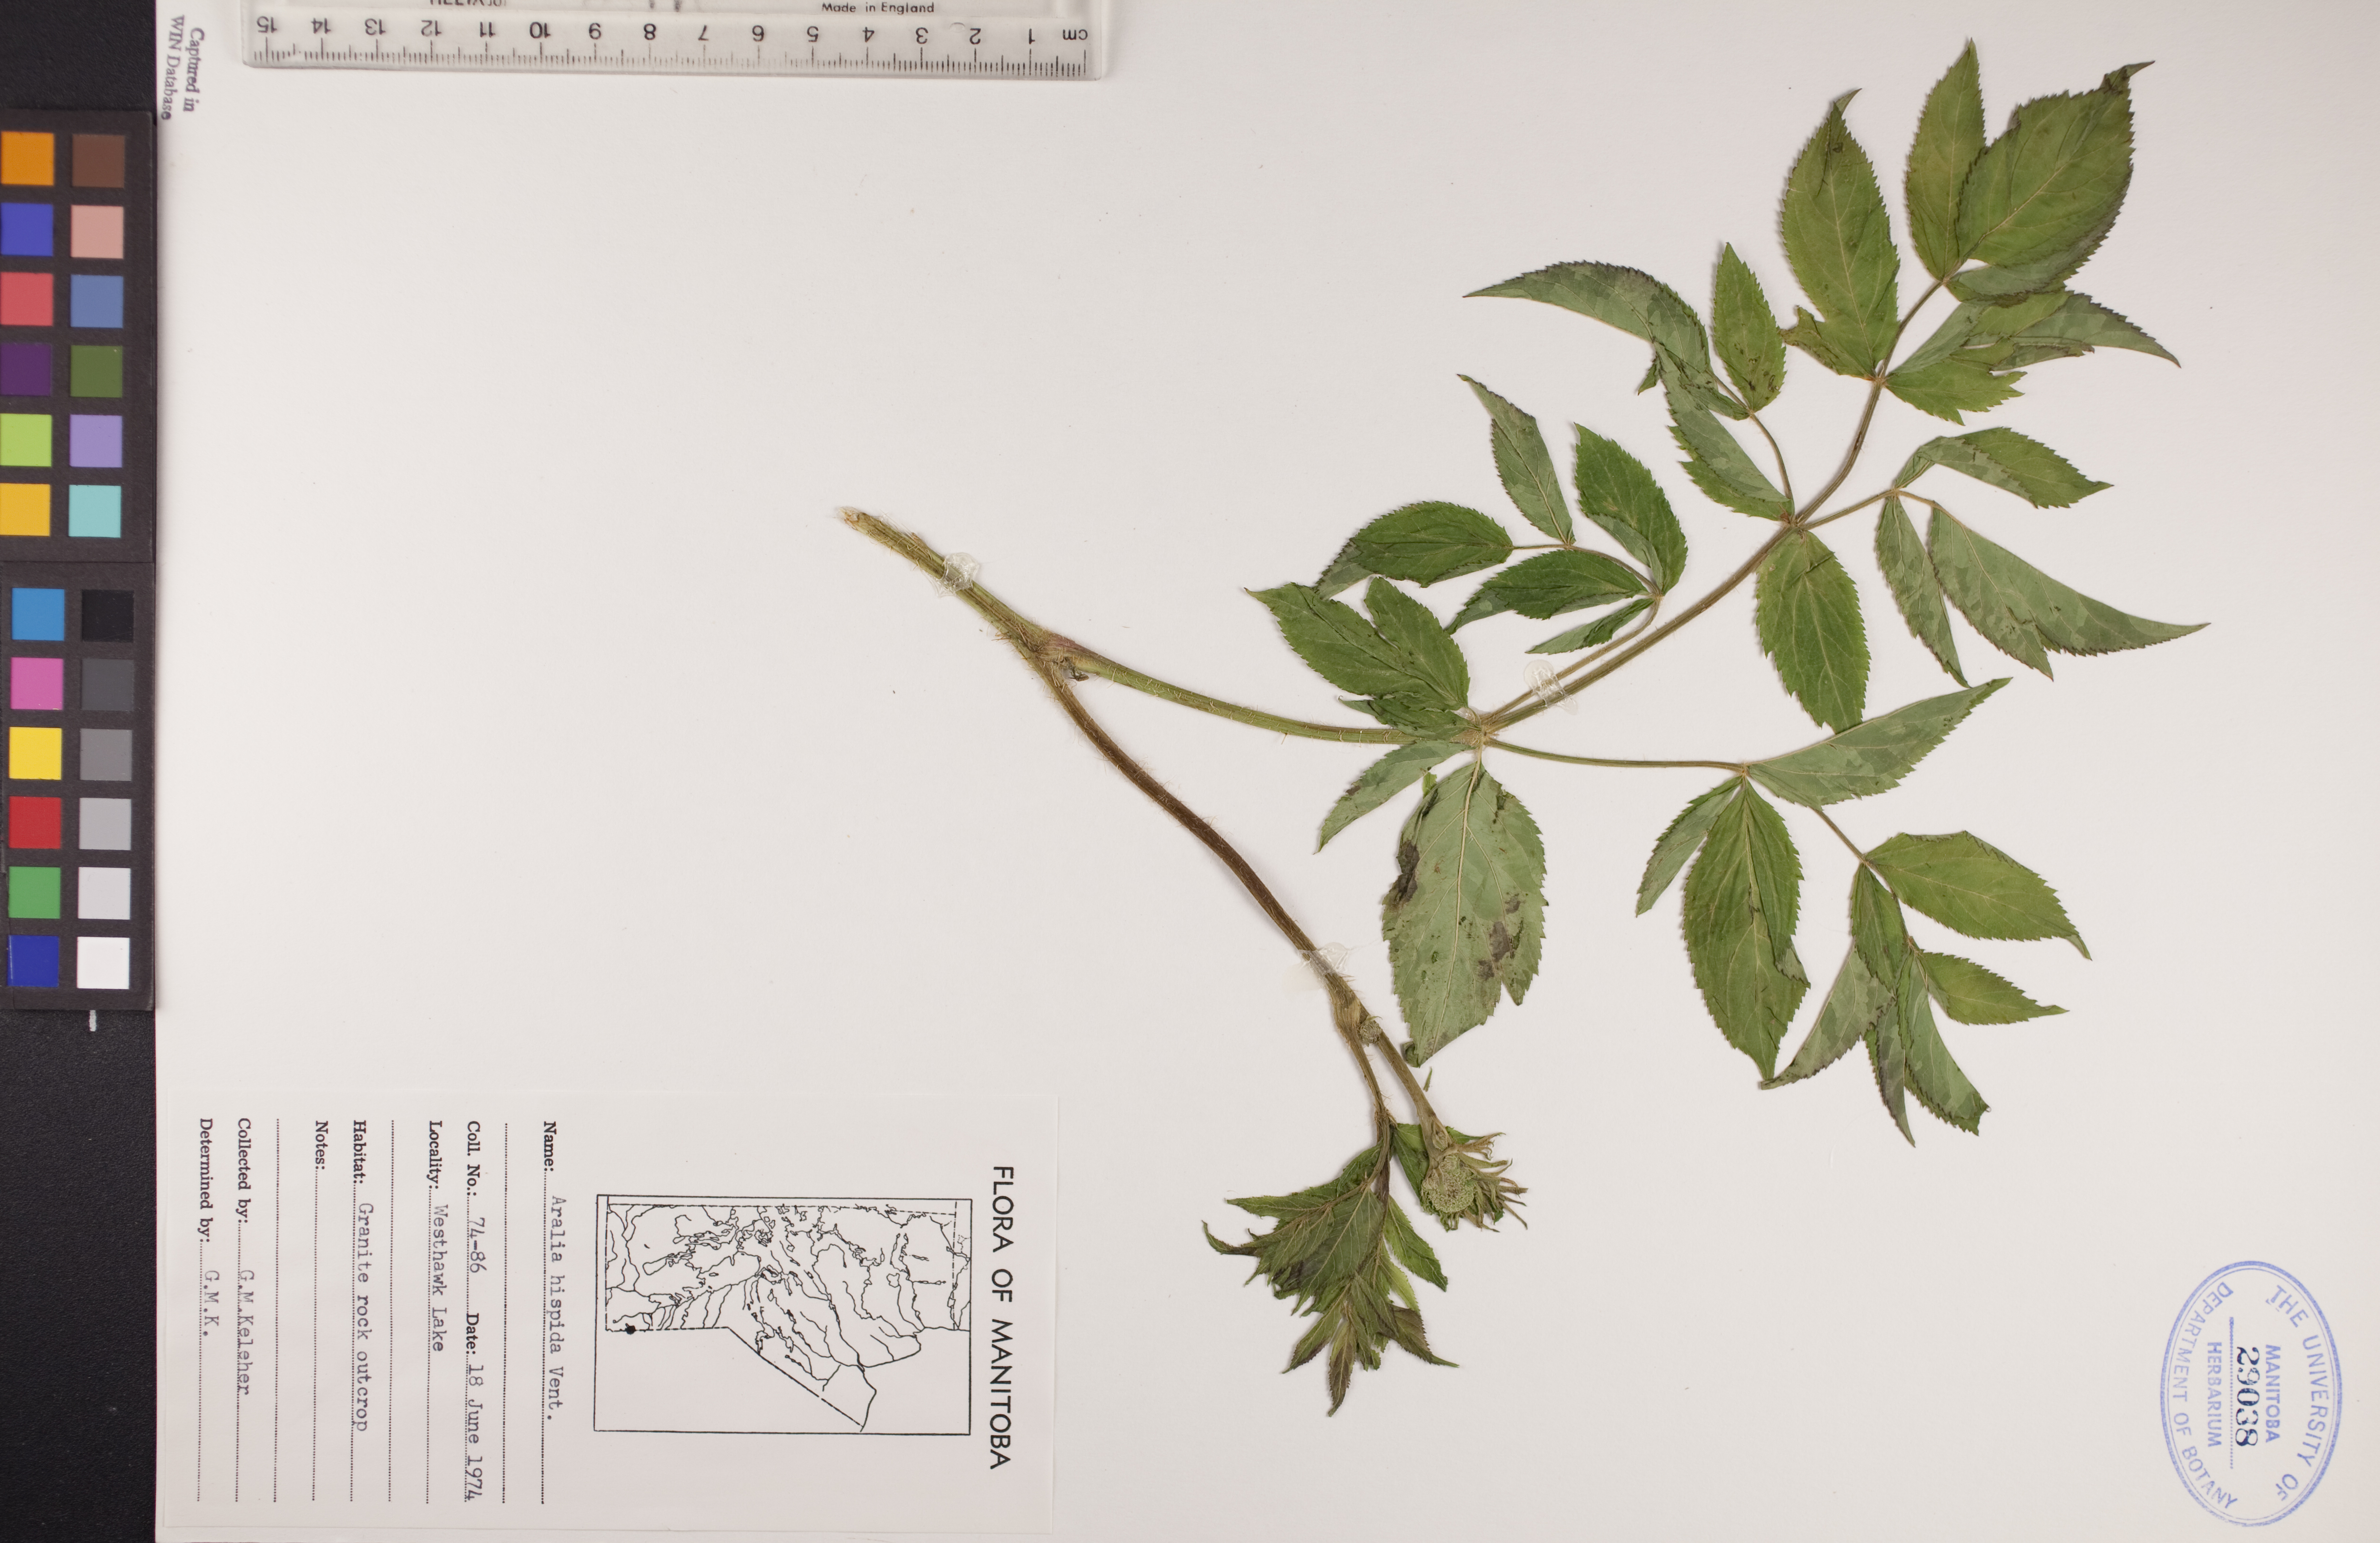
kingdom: Plantae
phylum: Tracheophyta
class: Magnoliopsida
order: Apiales
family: Araliaceae
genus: Aralia
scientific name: Aralia hispida
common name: Bristly sarsaparilla
